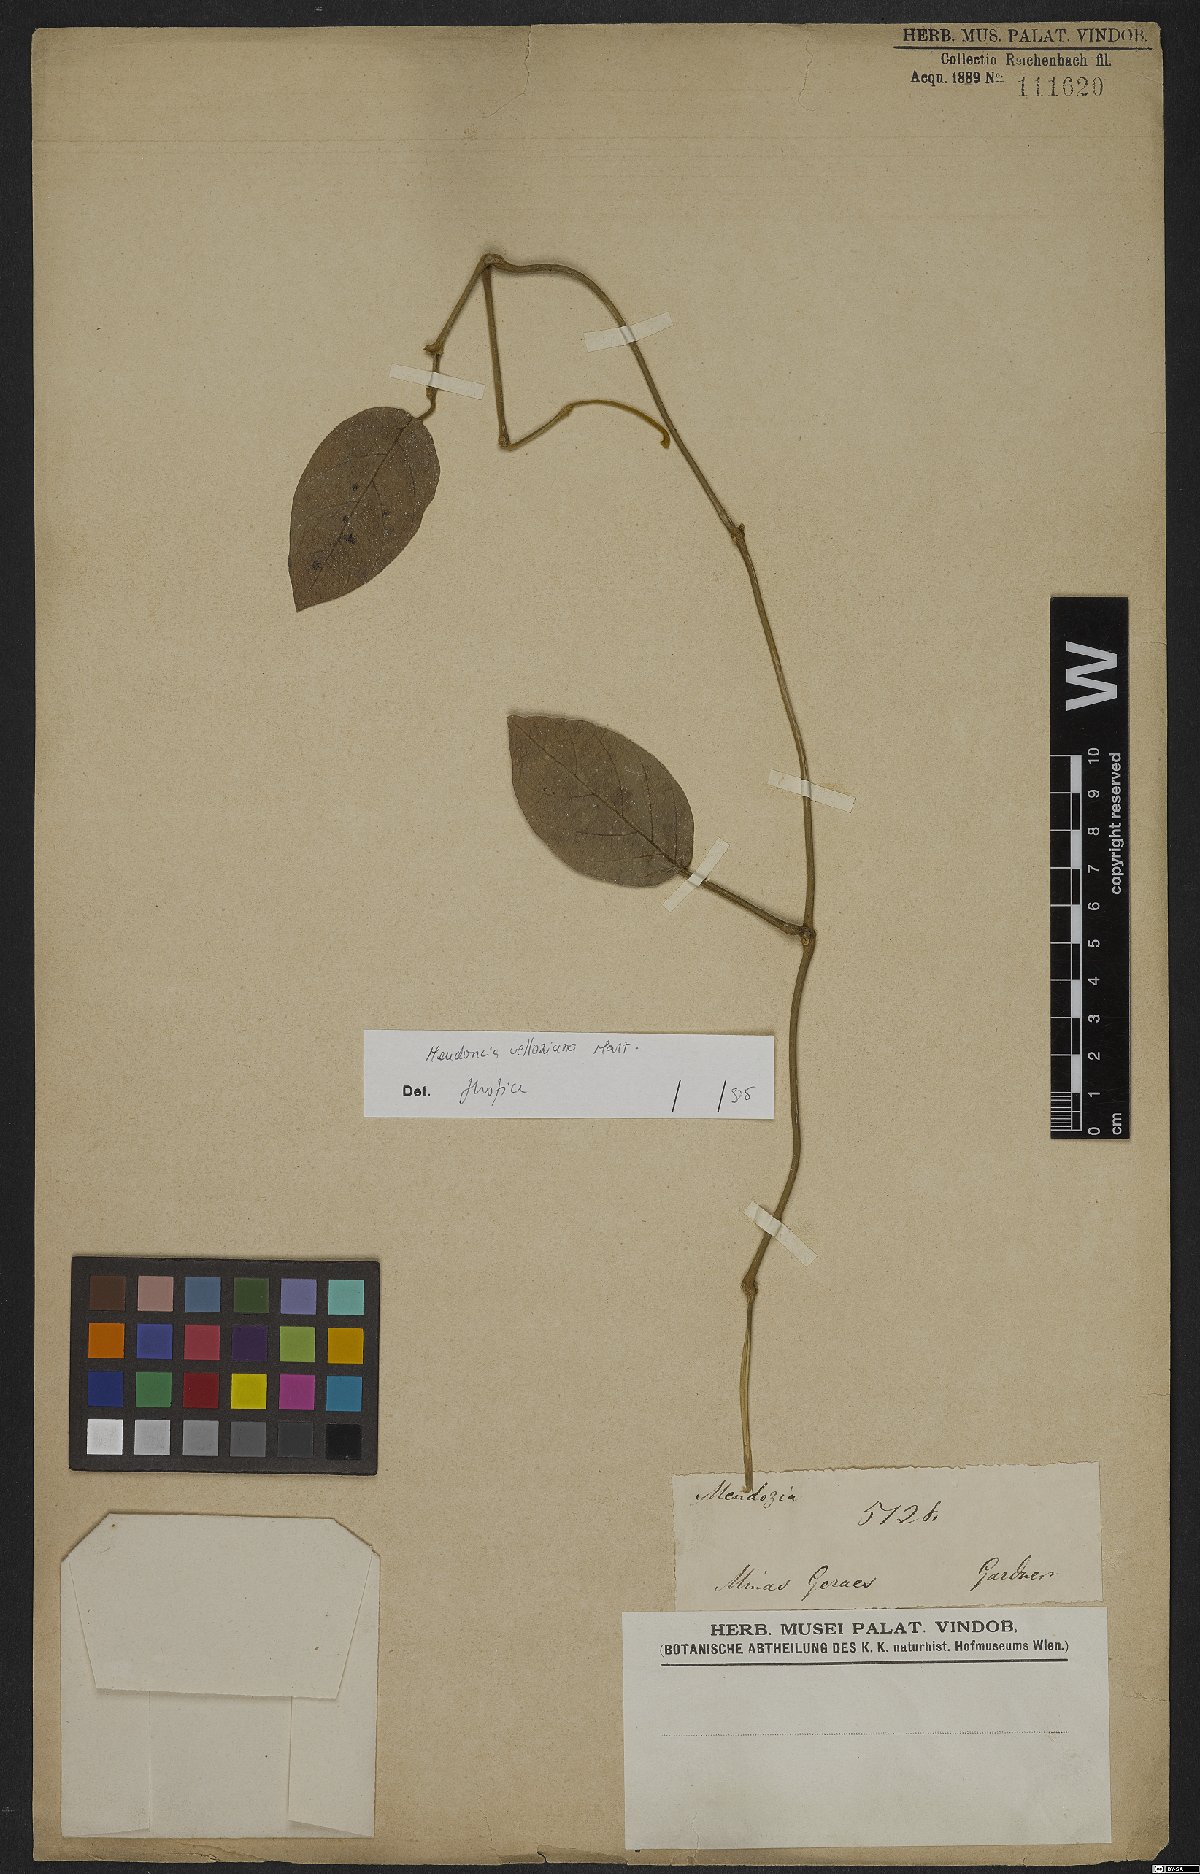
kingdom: Plantae
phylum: Tracheophyta
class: Magnoliopsida
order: Lamiales
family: Acanthaceae
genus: Mendoncia
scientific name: Mendoncia velloziana
